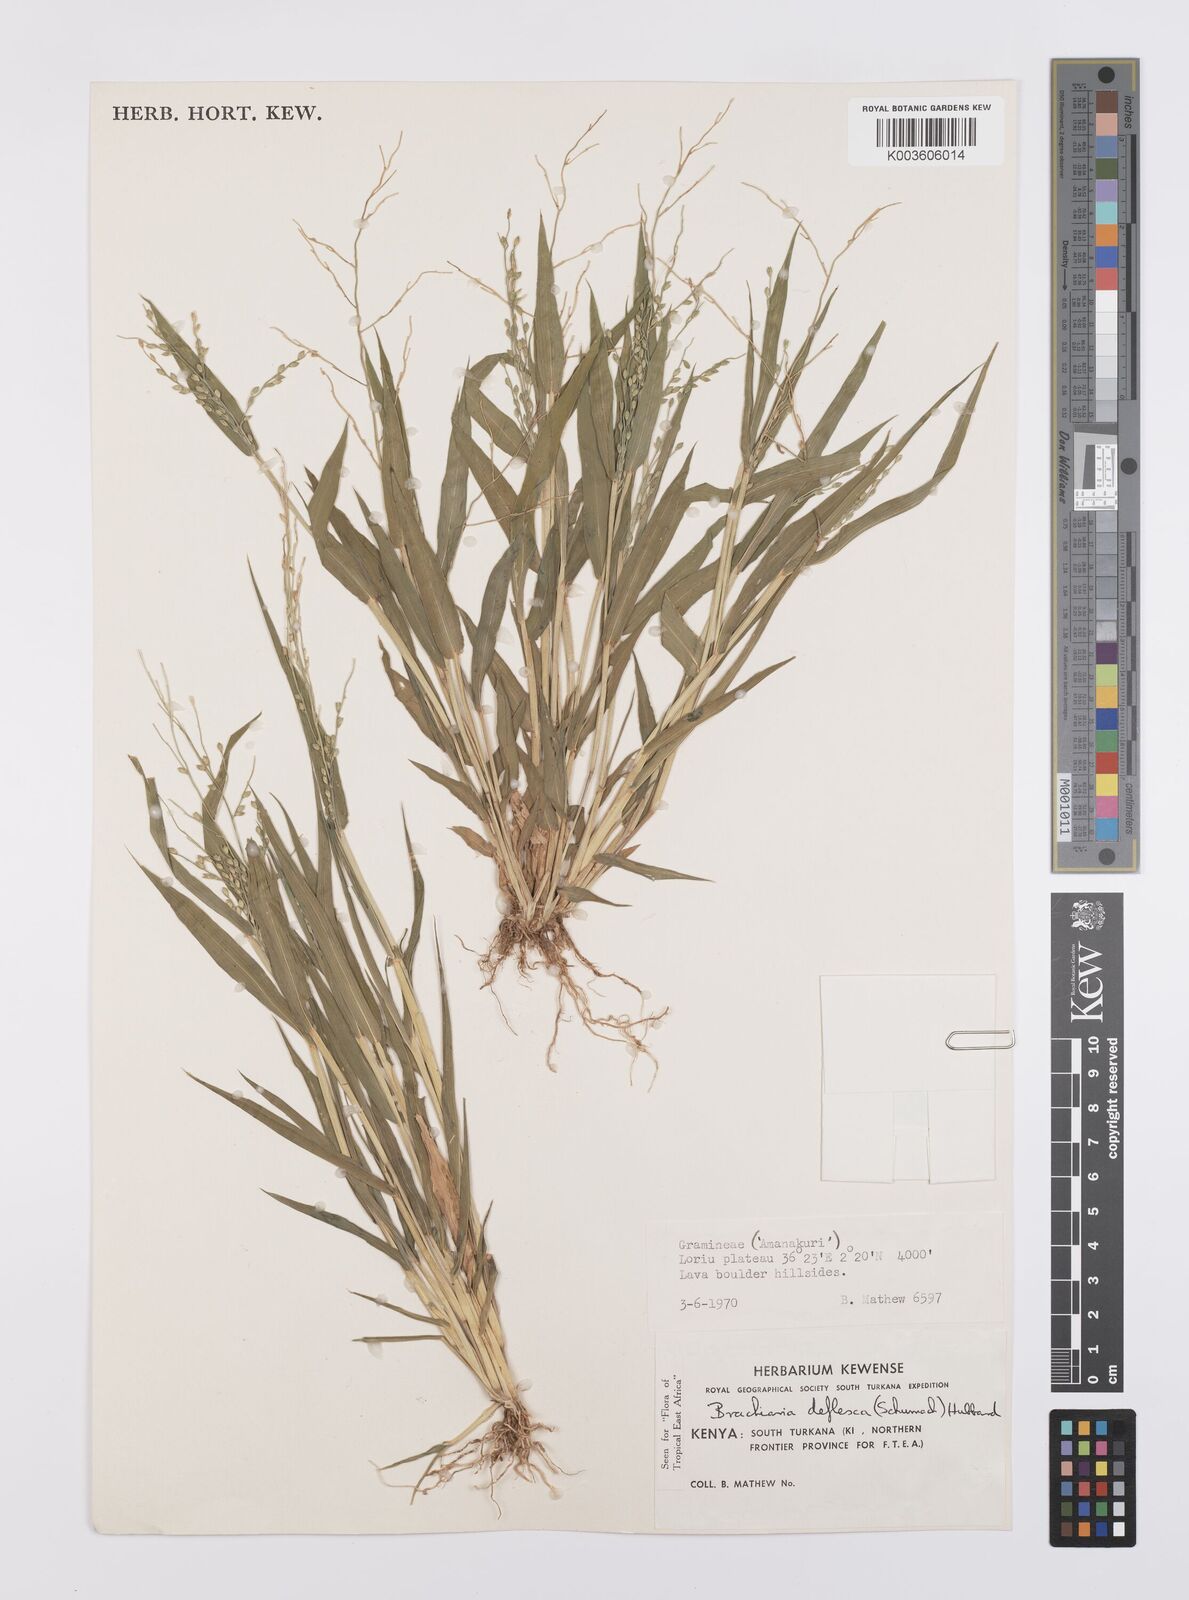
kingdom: Plantae
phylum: Tracheophyta
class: Liliopsida
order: Poales
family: Poaceae
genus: Urochloa
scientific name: Urochloa deflexa
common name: Guinea millet
